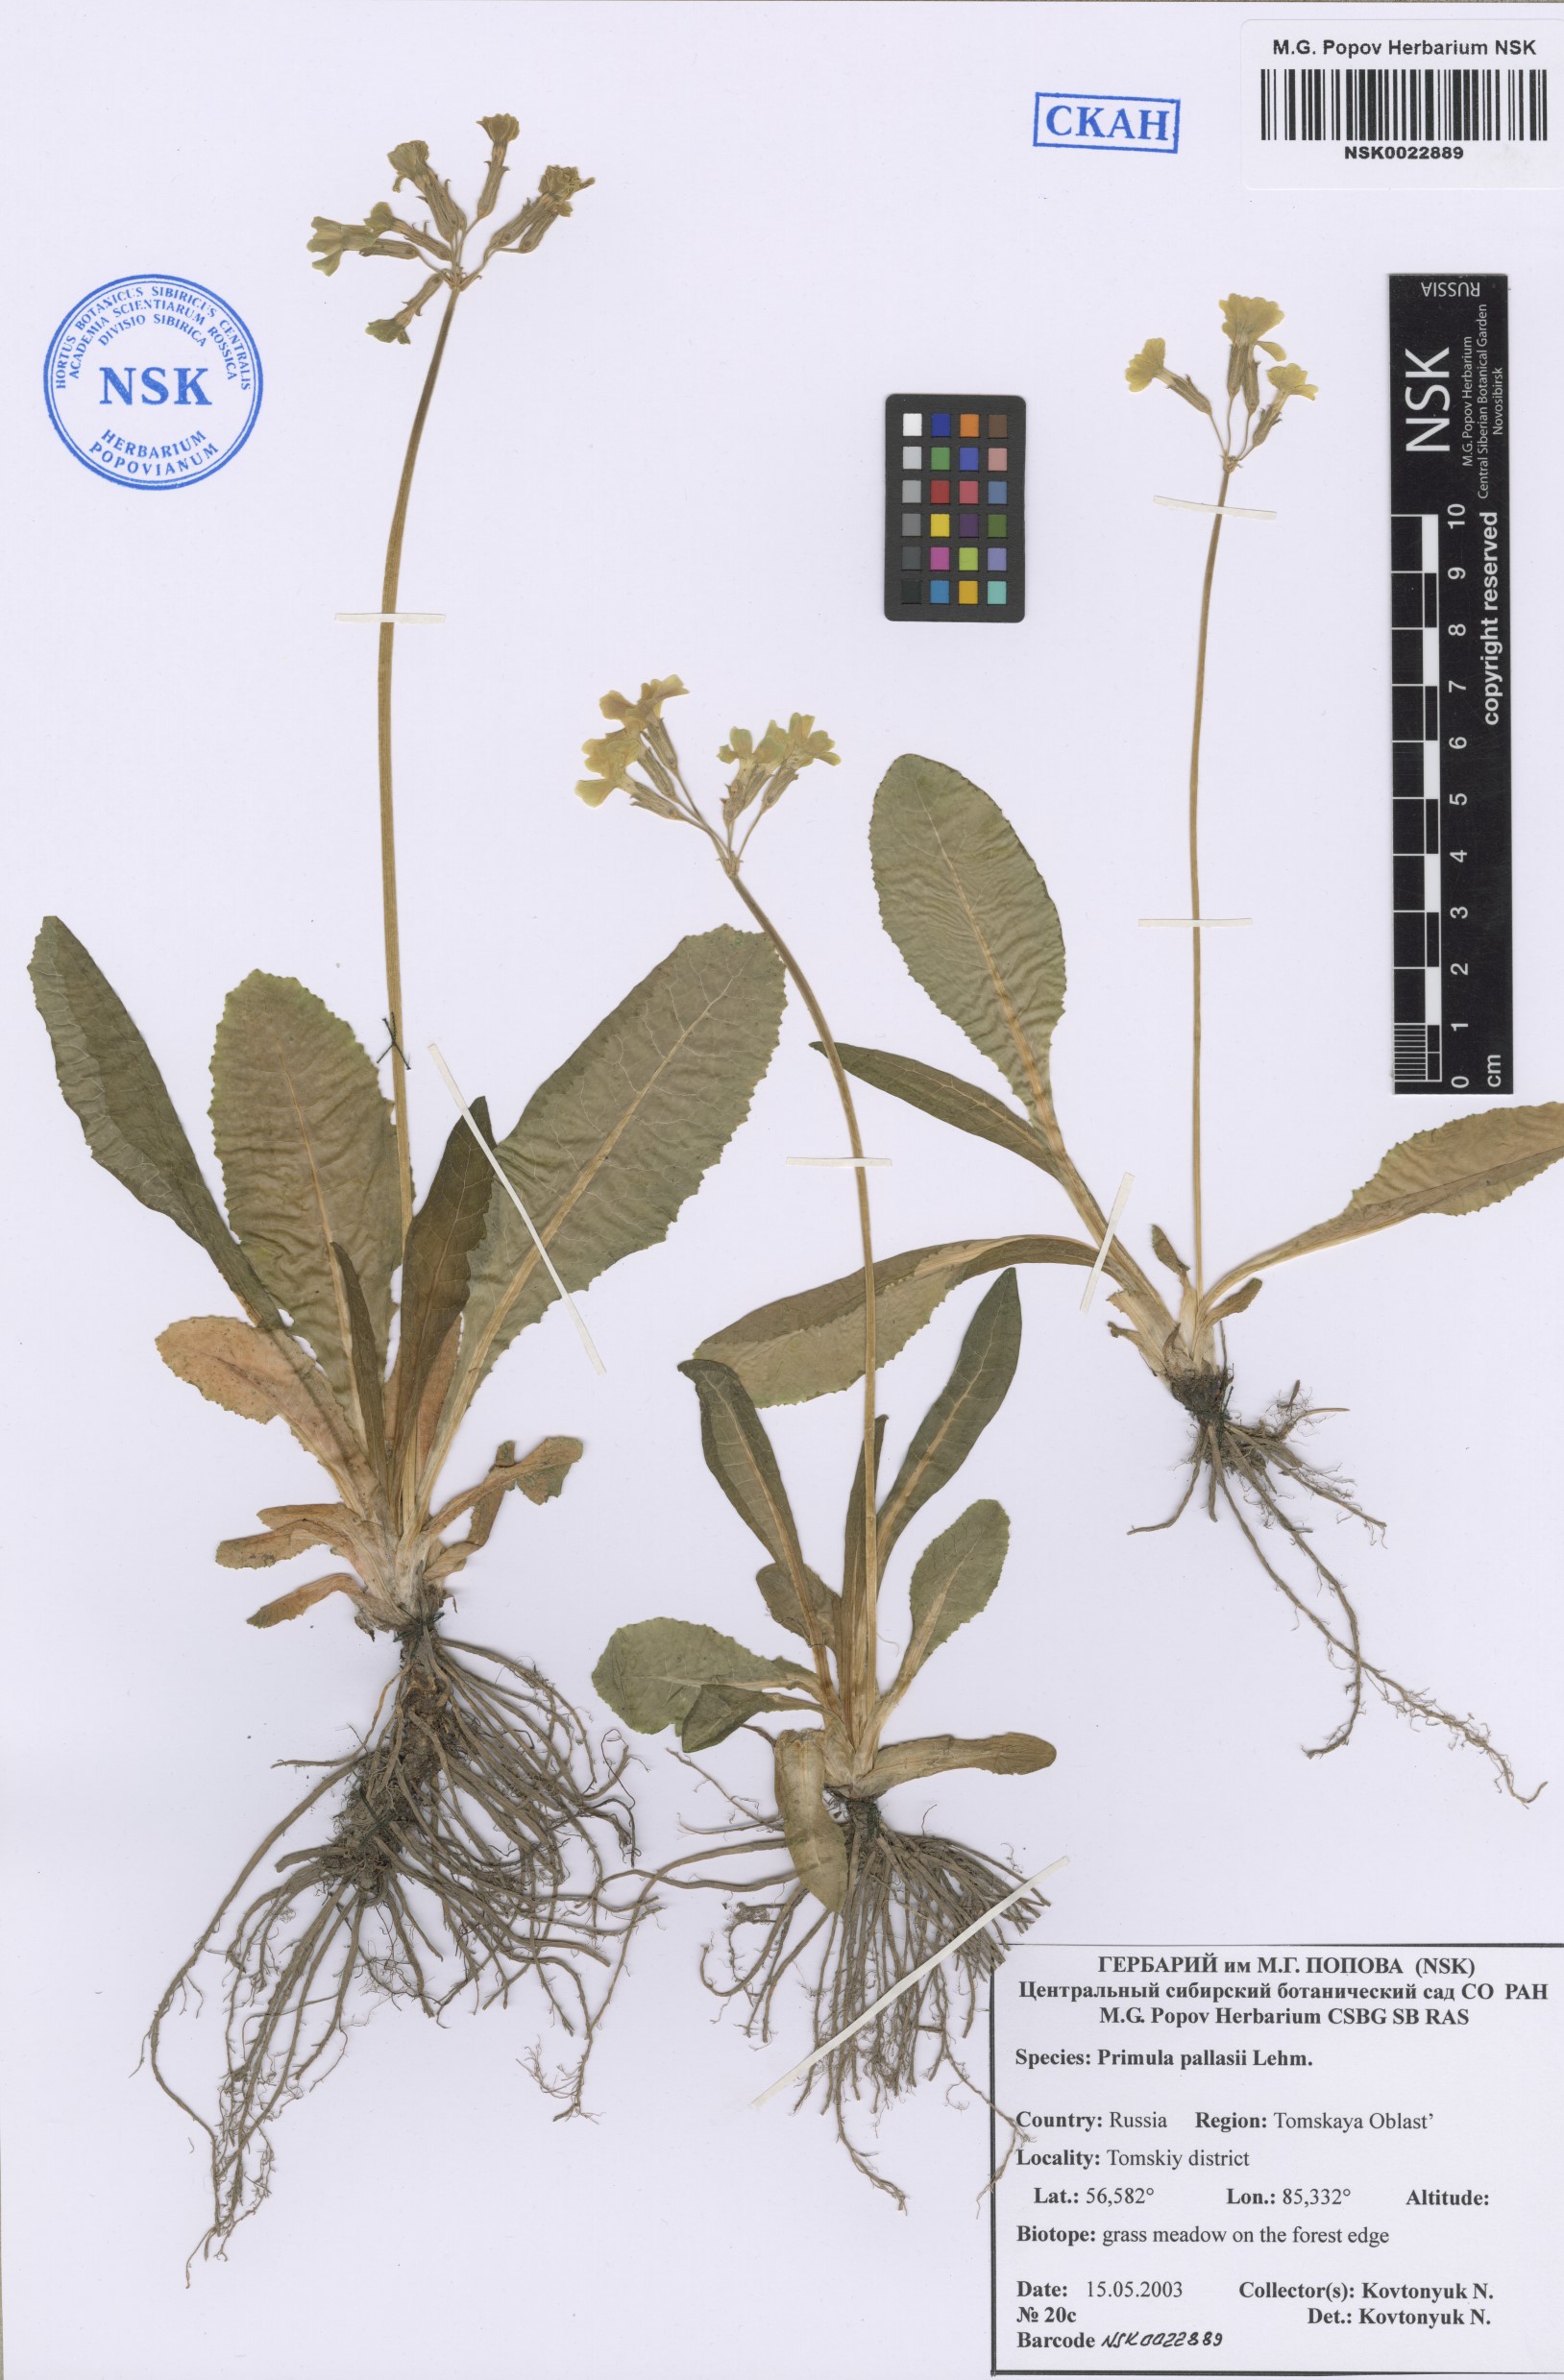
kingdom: Plantae
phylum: Tracheophyta
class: Magnoliopsida
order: Ericales
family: Primulaceae
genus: Primula
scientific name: Primula elatior
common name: Oxlip
